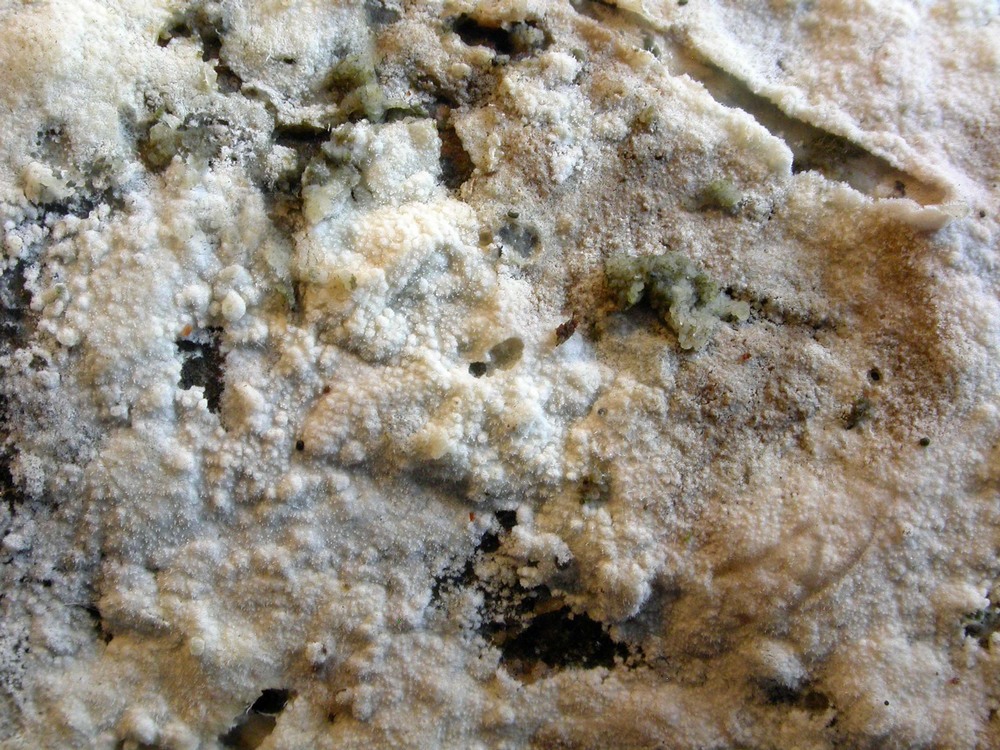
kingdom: Fungi
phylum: Basidiomycota
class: Agaricomycetes
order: Polyporales
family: Hyphodermataceae
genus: Hyphoderma
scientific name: Hyphoderma setigerum
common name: håret kalkskind
